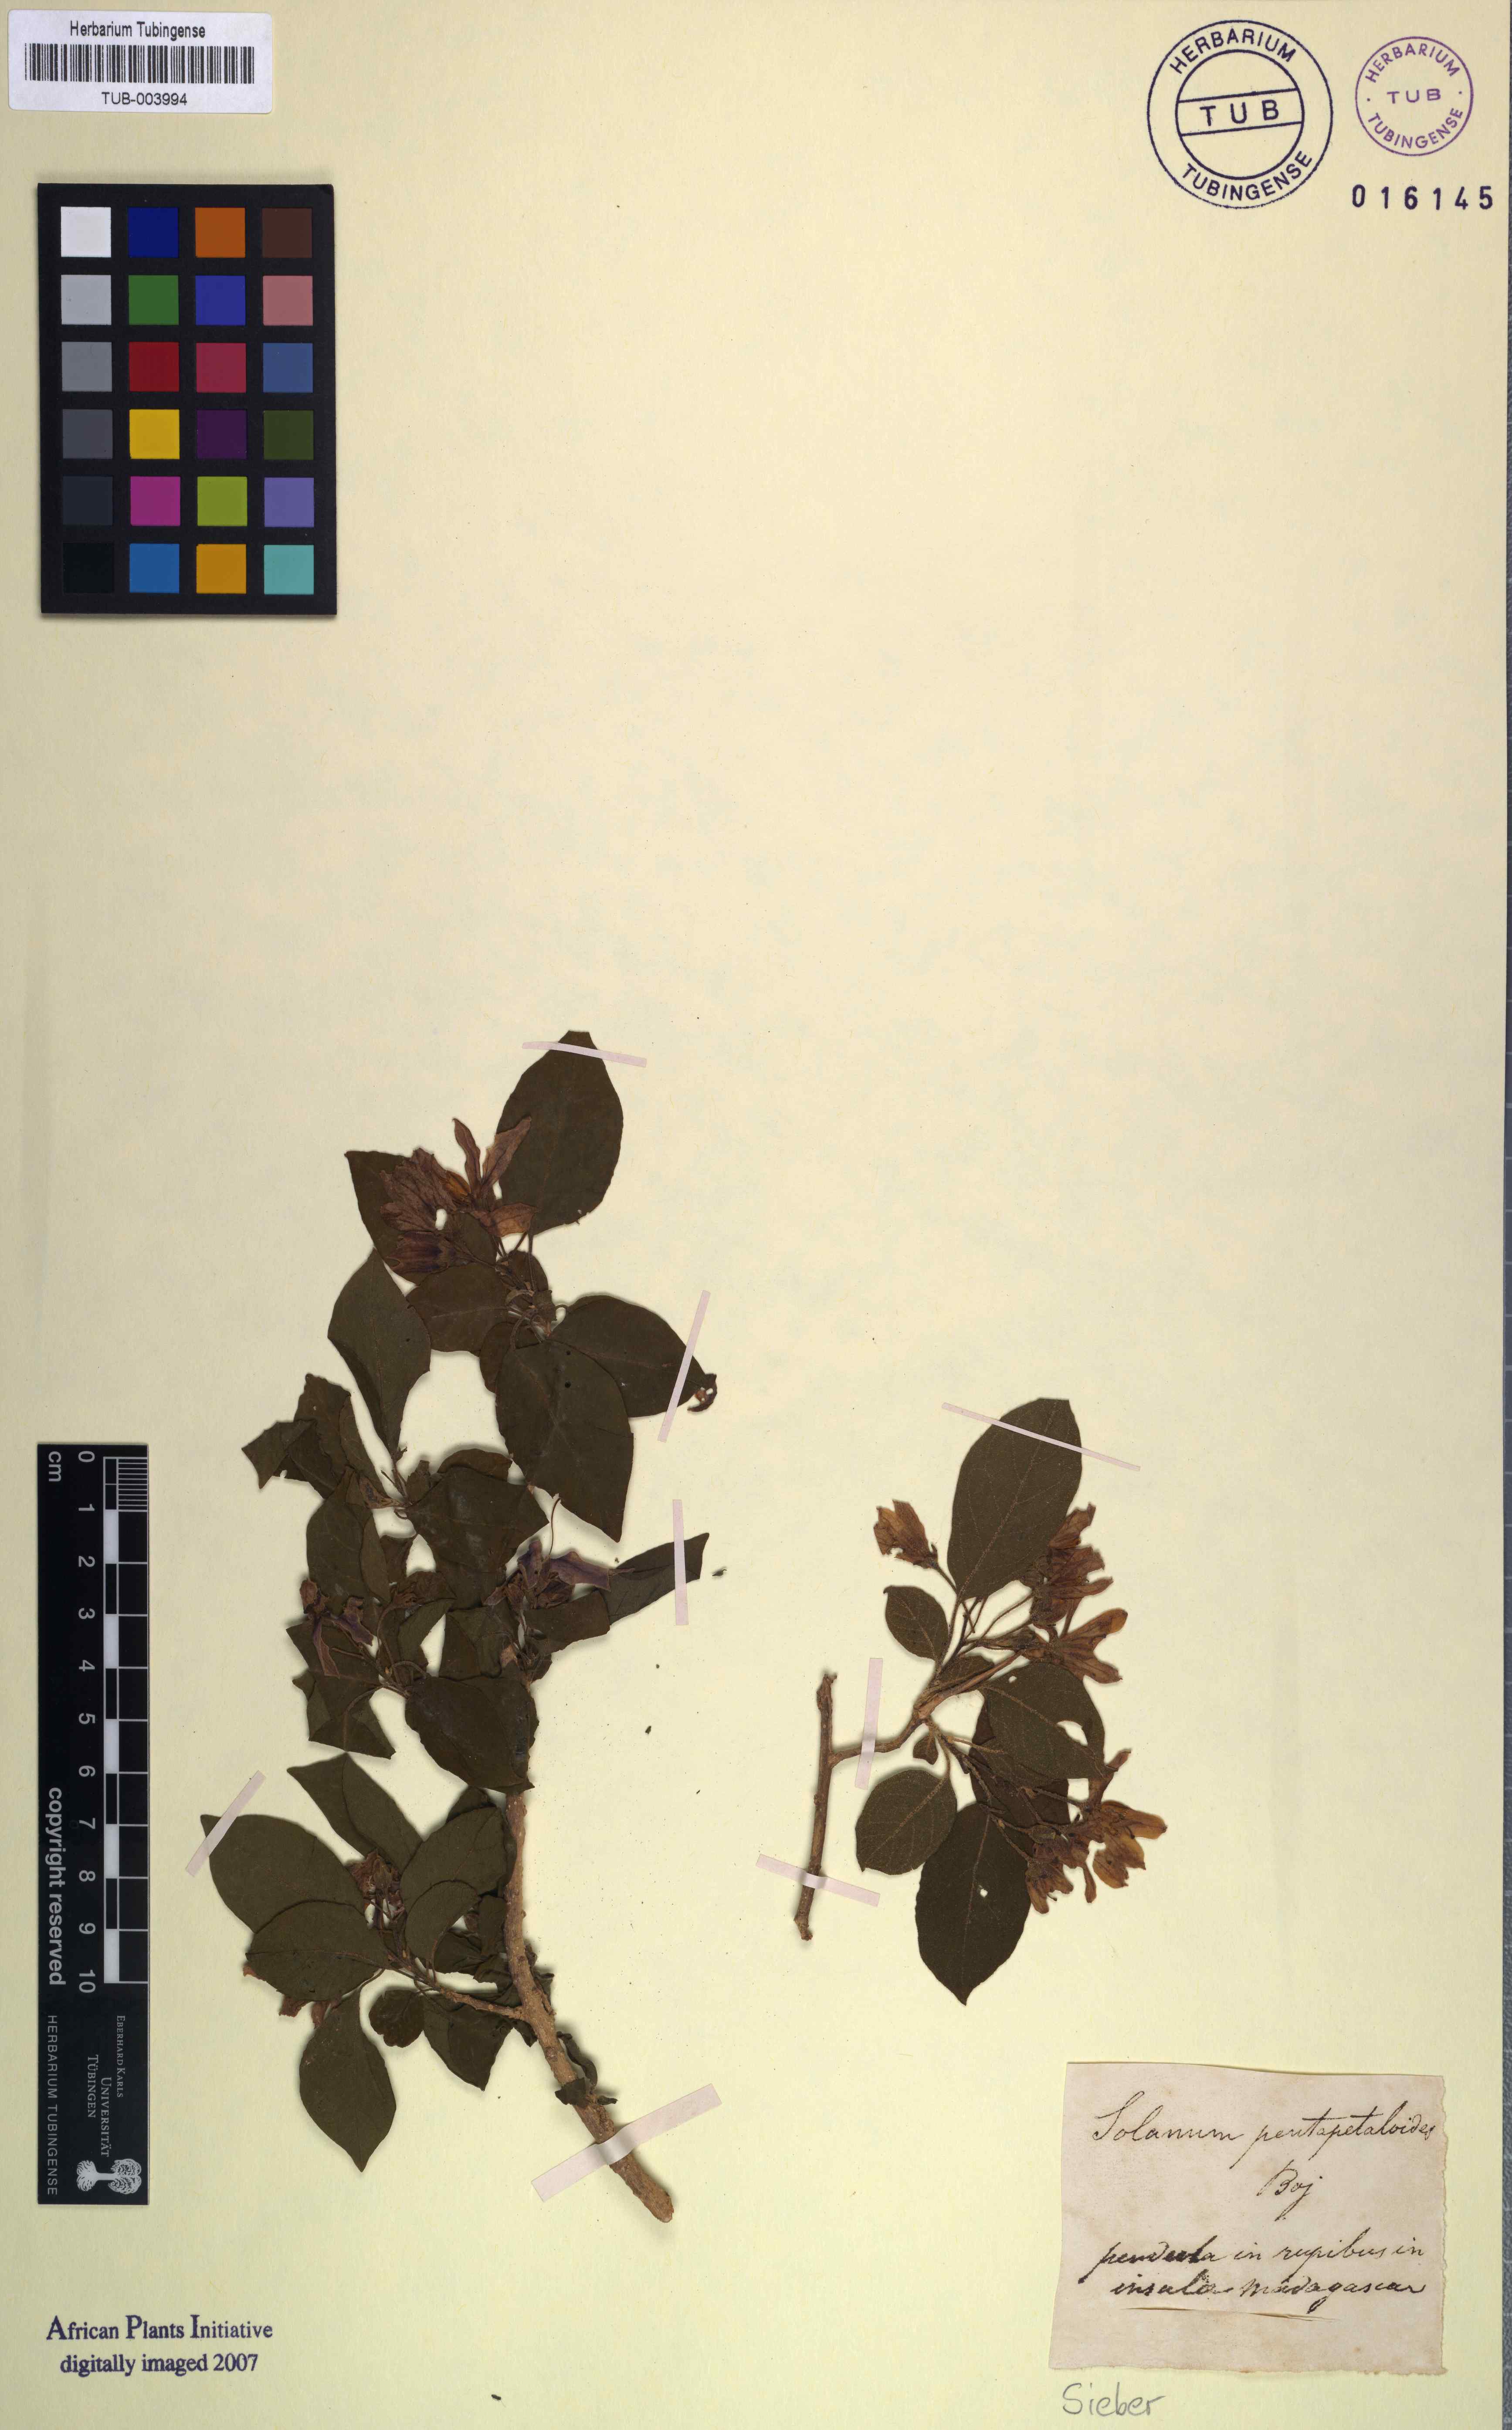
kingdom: Plantae
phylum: Tracheophyta
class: Magnoliopsida
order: Solanales
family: Solanaceae
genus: Solanum
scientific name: Solanum imamense
